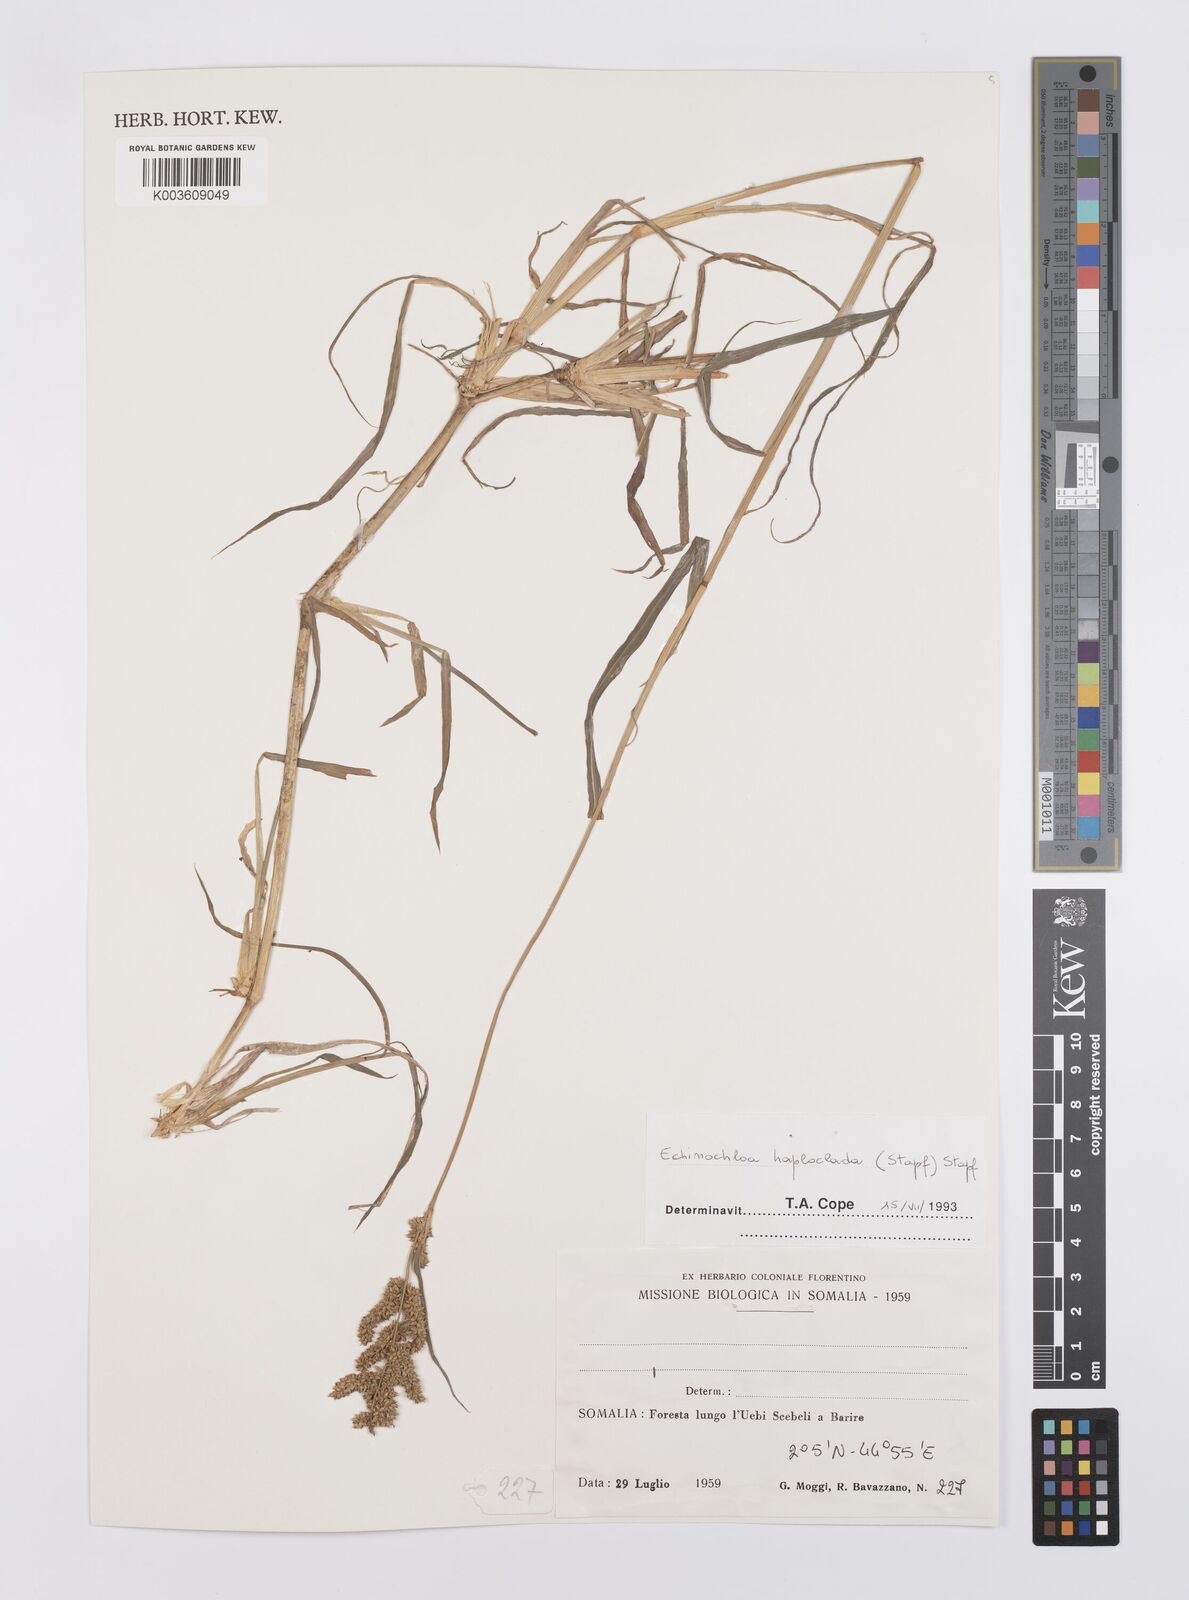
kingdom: Plantae
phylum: Tracheophyta
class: Liliopsida
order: Poales
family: Poaceae
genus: Echinochloa
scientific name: Echinochloa haploclada
